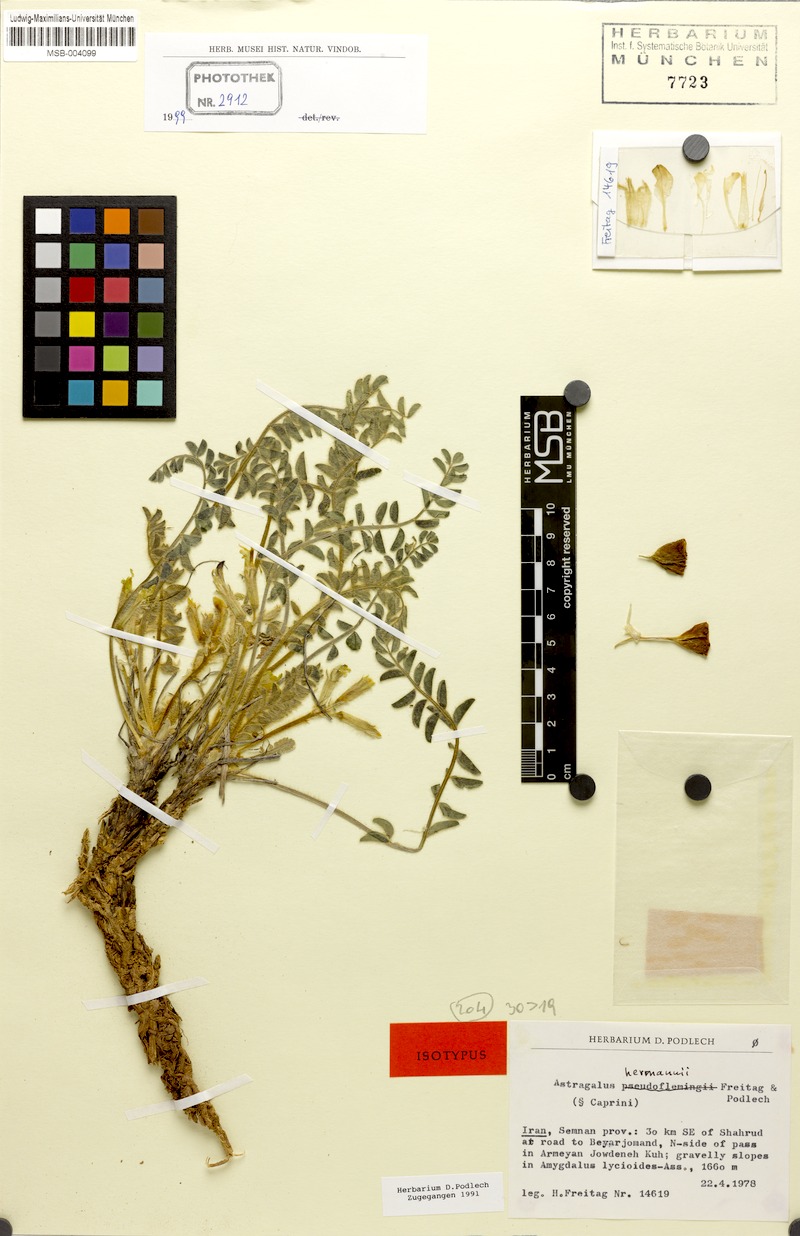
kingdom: Plantae
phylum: Tracheophyta
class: Magnoliopsida
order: Fabales
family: Fabaceae
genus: Astragalus
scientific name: Astragalus hermannii
